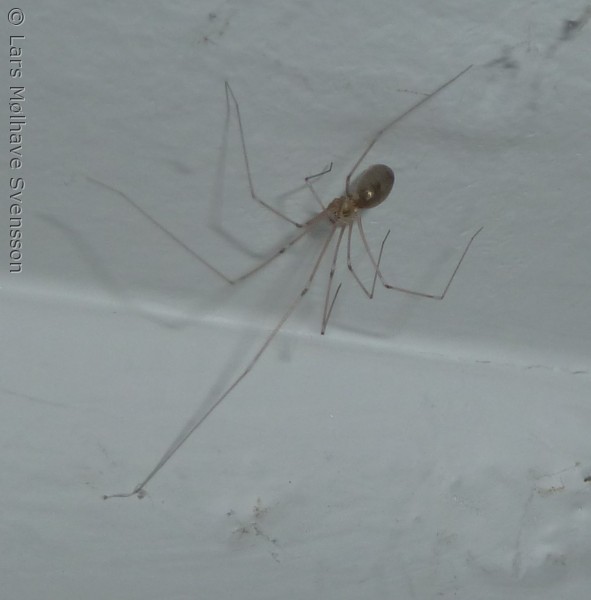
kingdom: Animalia
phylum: Arthropoda
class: Arachnida
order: Araneae
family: Pholcidae
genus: Pholcus
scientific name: Pholcus phalangioides
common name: Mejeredderkop
